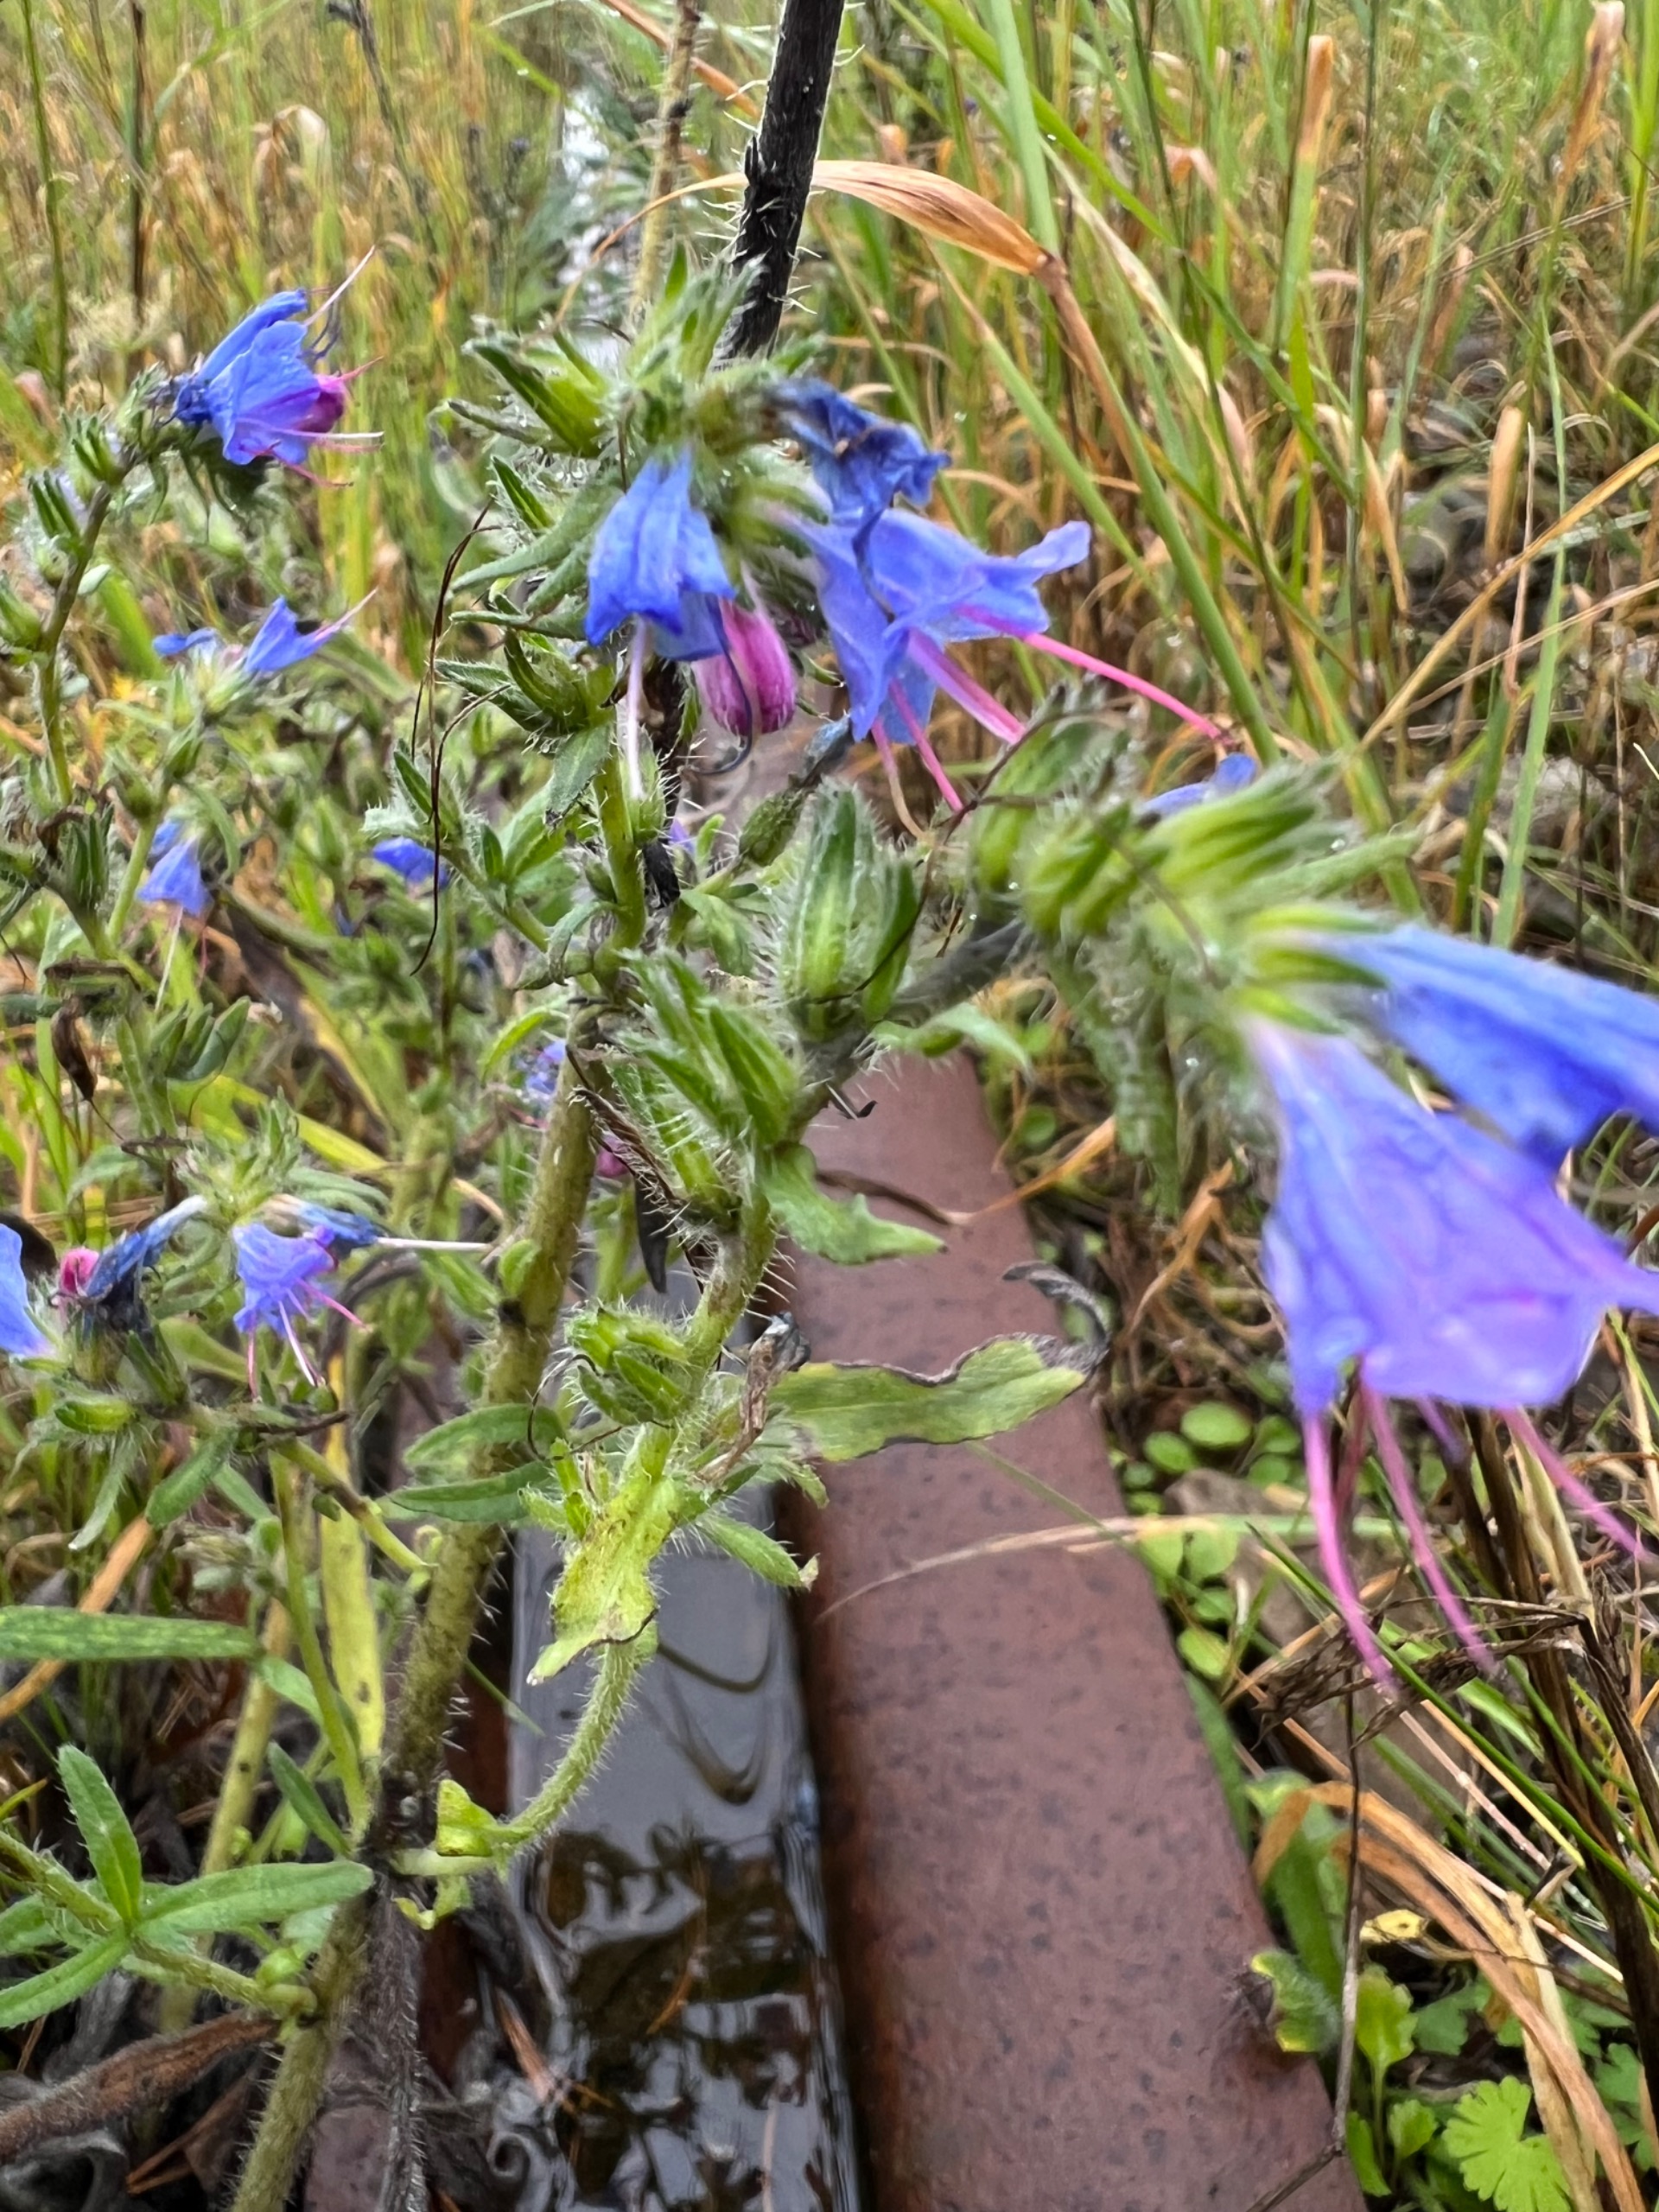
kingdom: Plantae
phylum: Tracheophyta
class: Magnoliopsida
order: Boraginales
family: Boraginaceae
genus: Echium
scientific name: Echium vulgare
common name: Slangehoved
